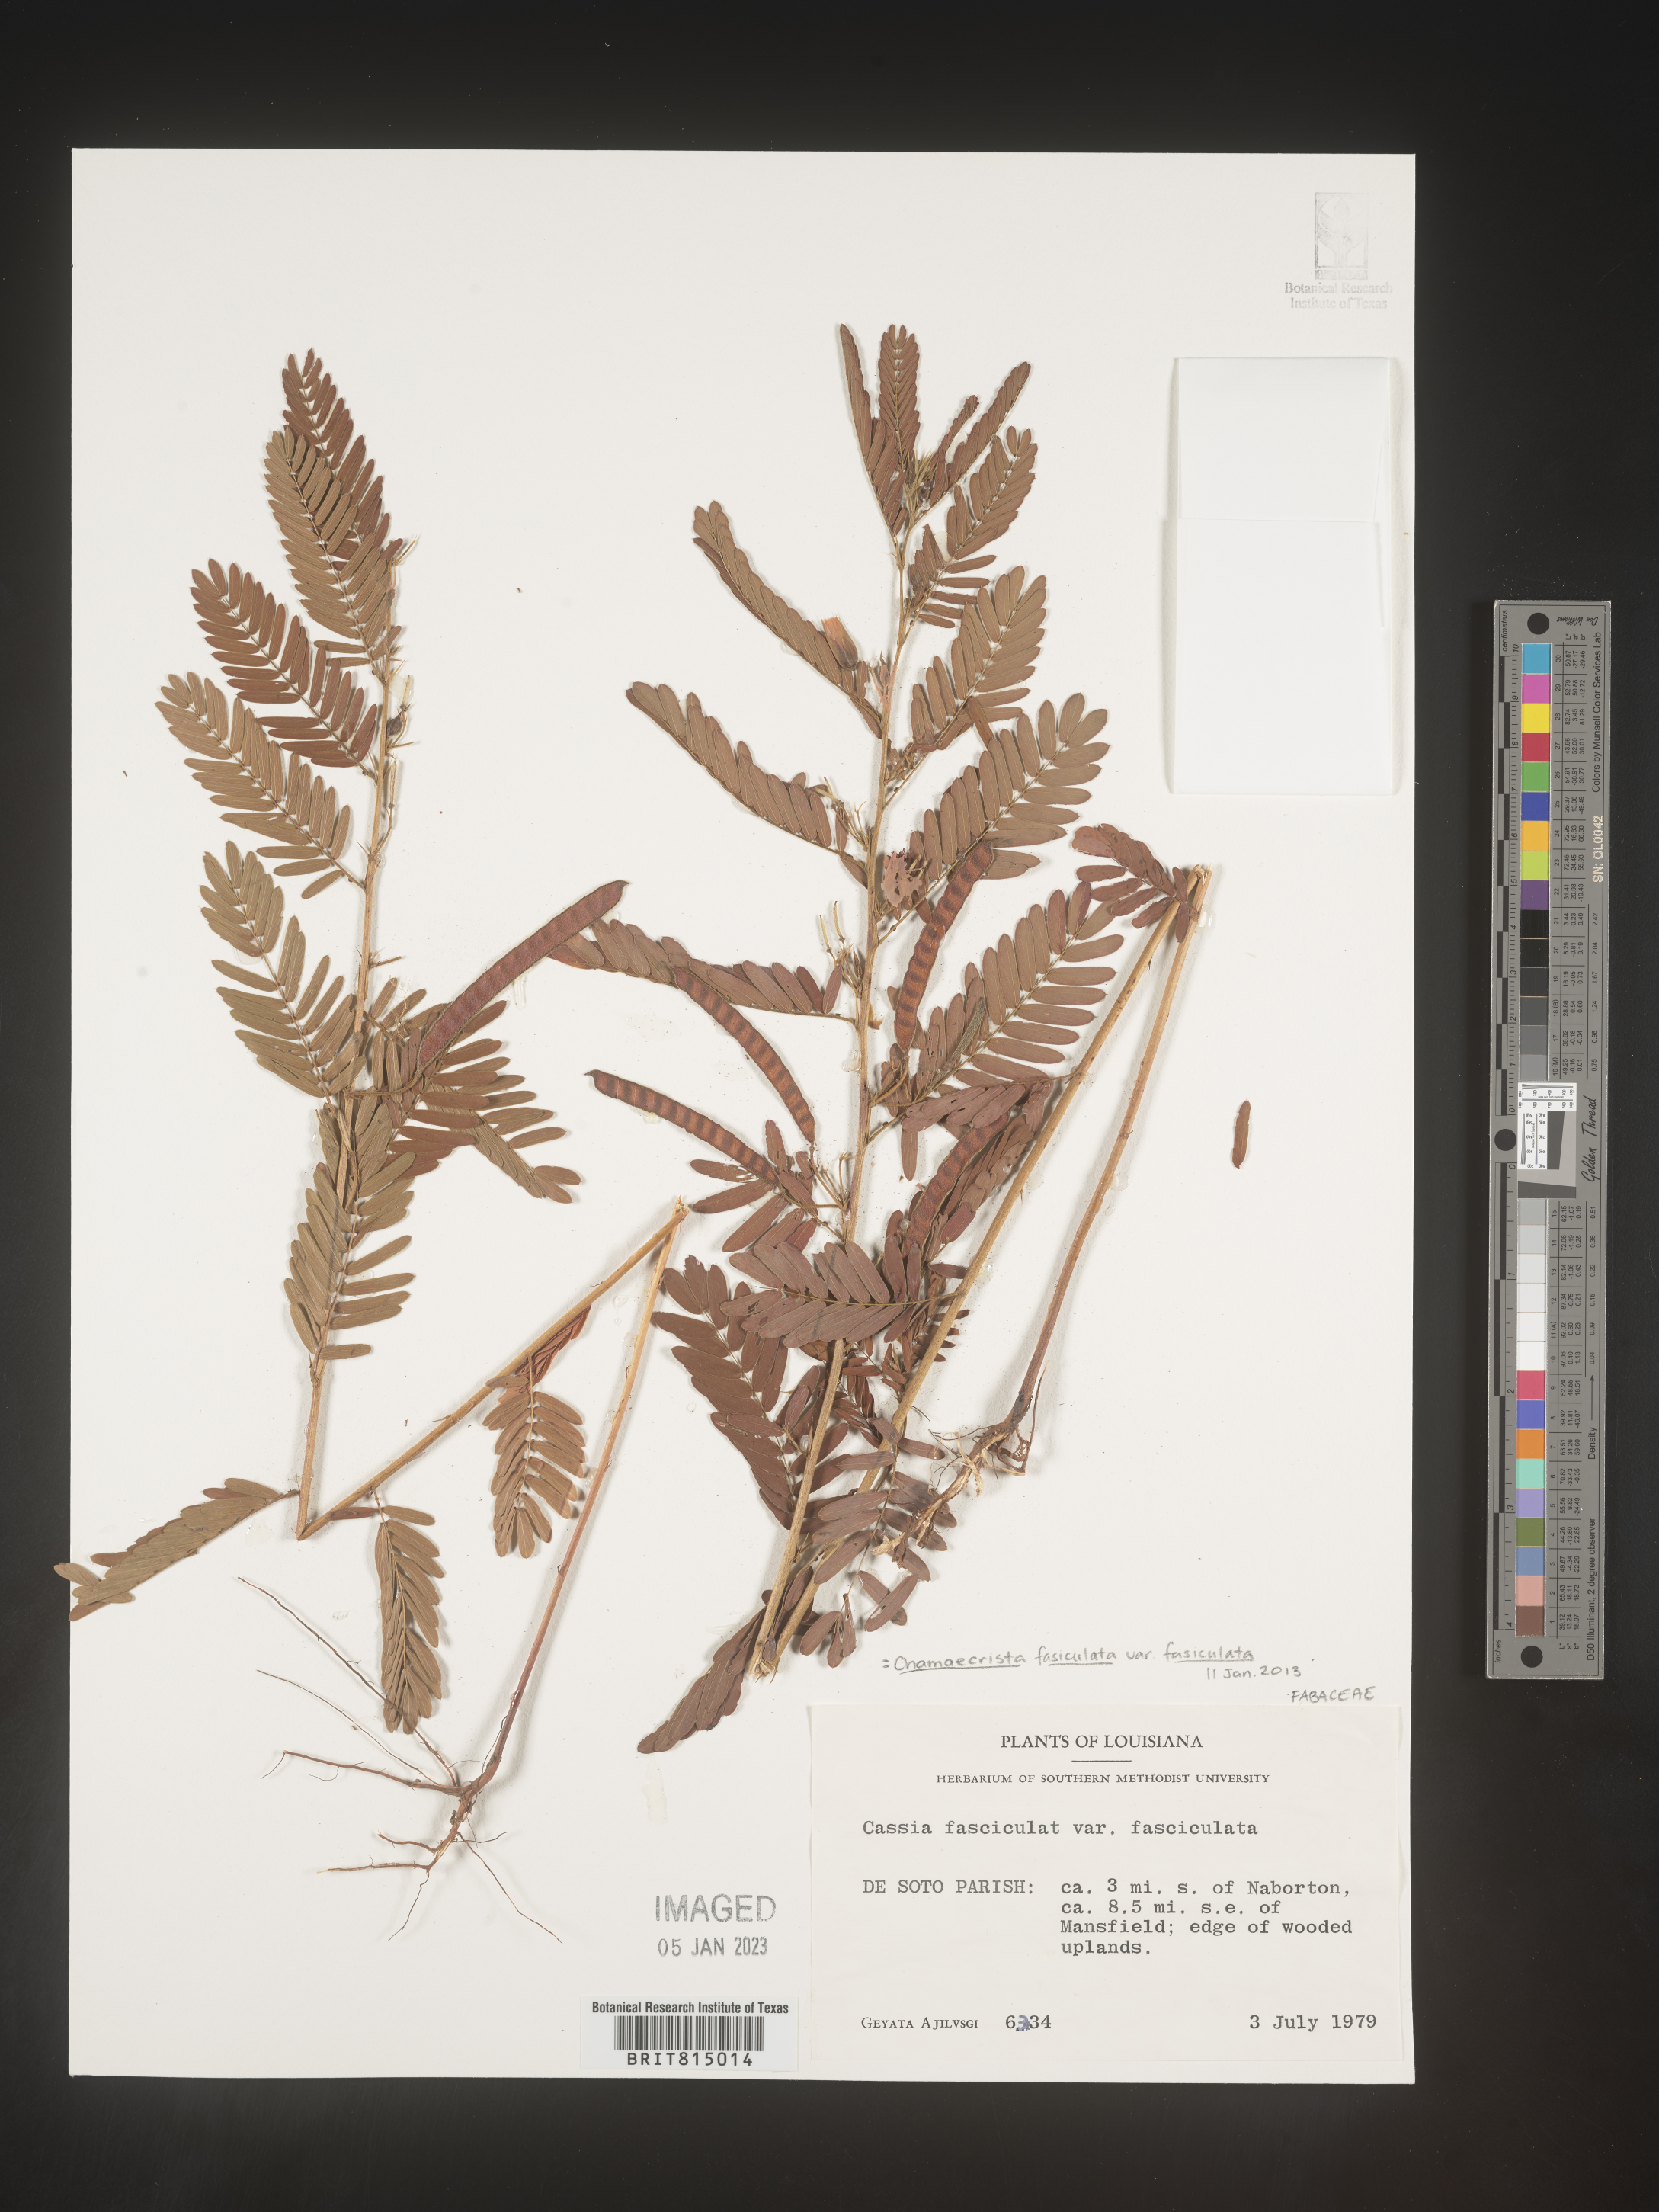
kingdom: Plantae
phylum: Tracheophyta
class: Magnoliopsida
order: Fabales
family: Fabaceae
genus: Chamaecrista
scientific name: Chamaecrista fasciculata
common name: Golden cassia
